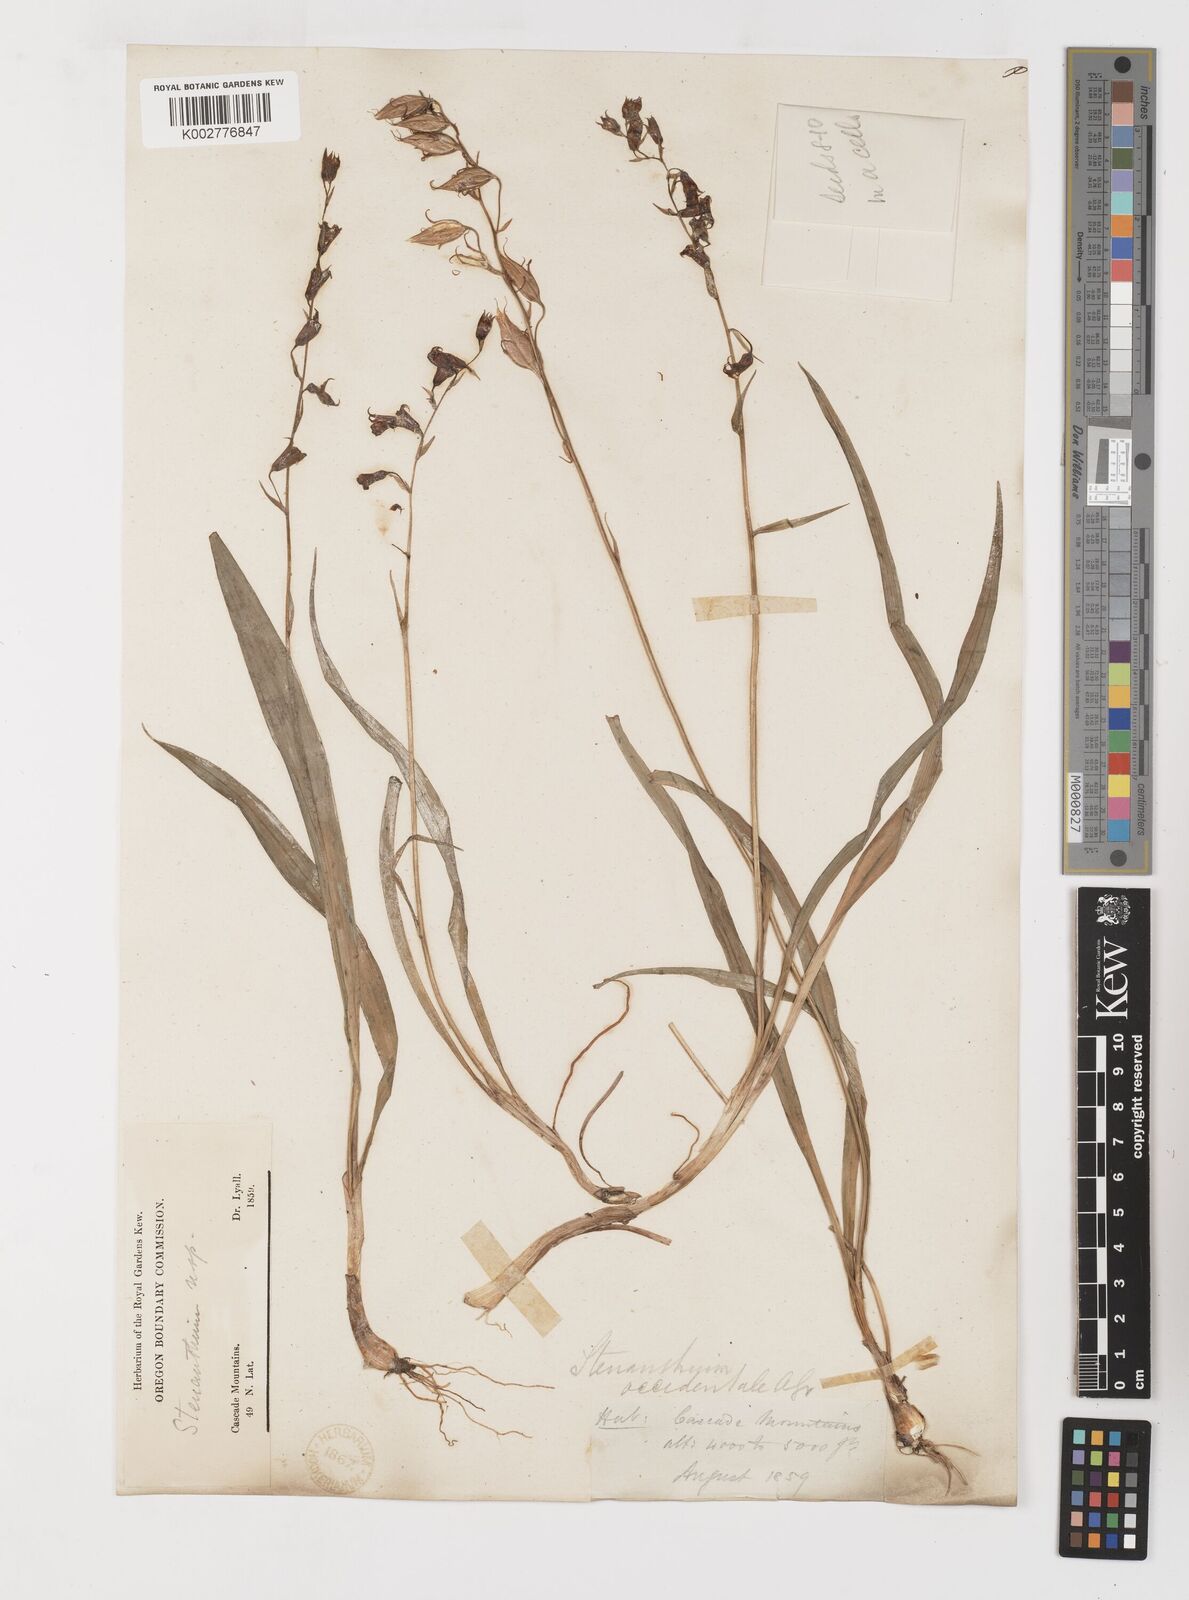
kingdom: Plantae
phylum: Tracheophyta
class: Liliopsida
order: Liliales
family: Melanthiaceae
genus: Anticlea
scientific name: Anticlea occidentalis
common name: Bronze-bells
